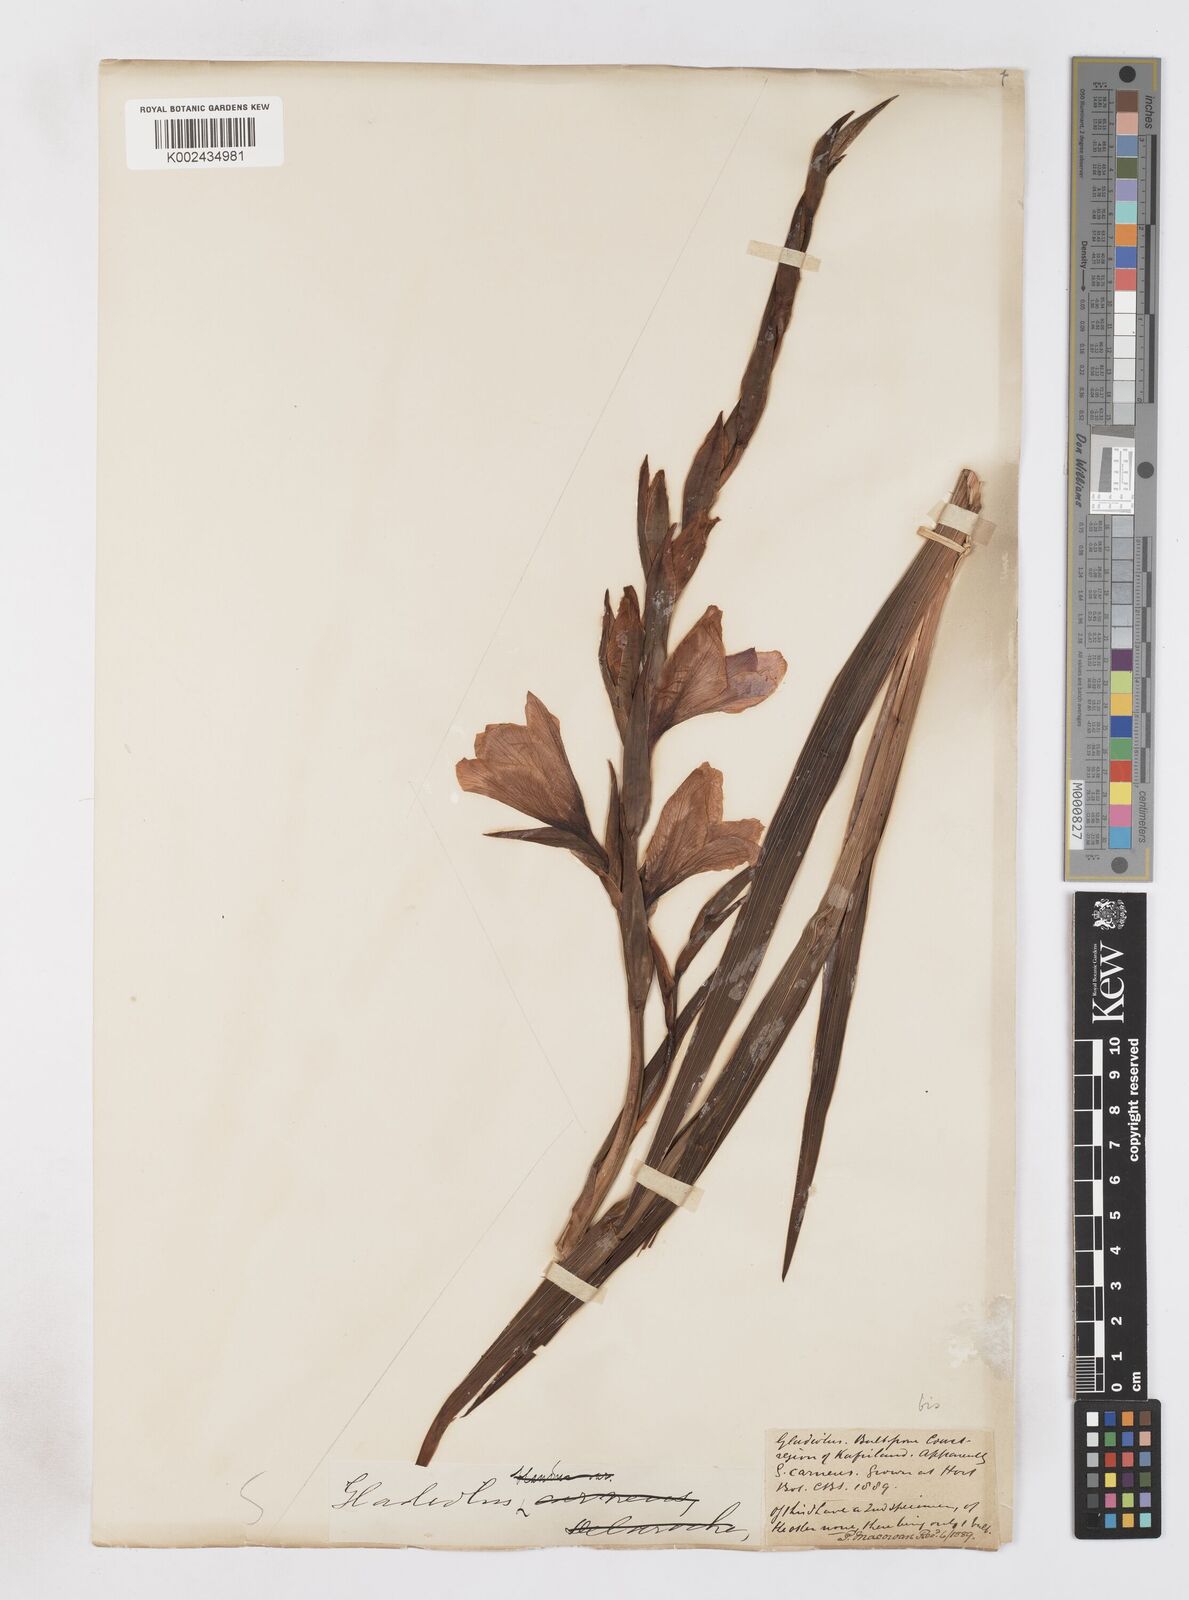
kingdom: Plantae
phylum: Tracheophyta
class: Liliopsida
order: Asparagales
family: Iridaceae
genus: Gladiolus
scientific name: Gladiolus ochroleucus
